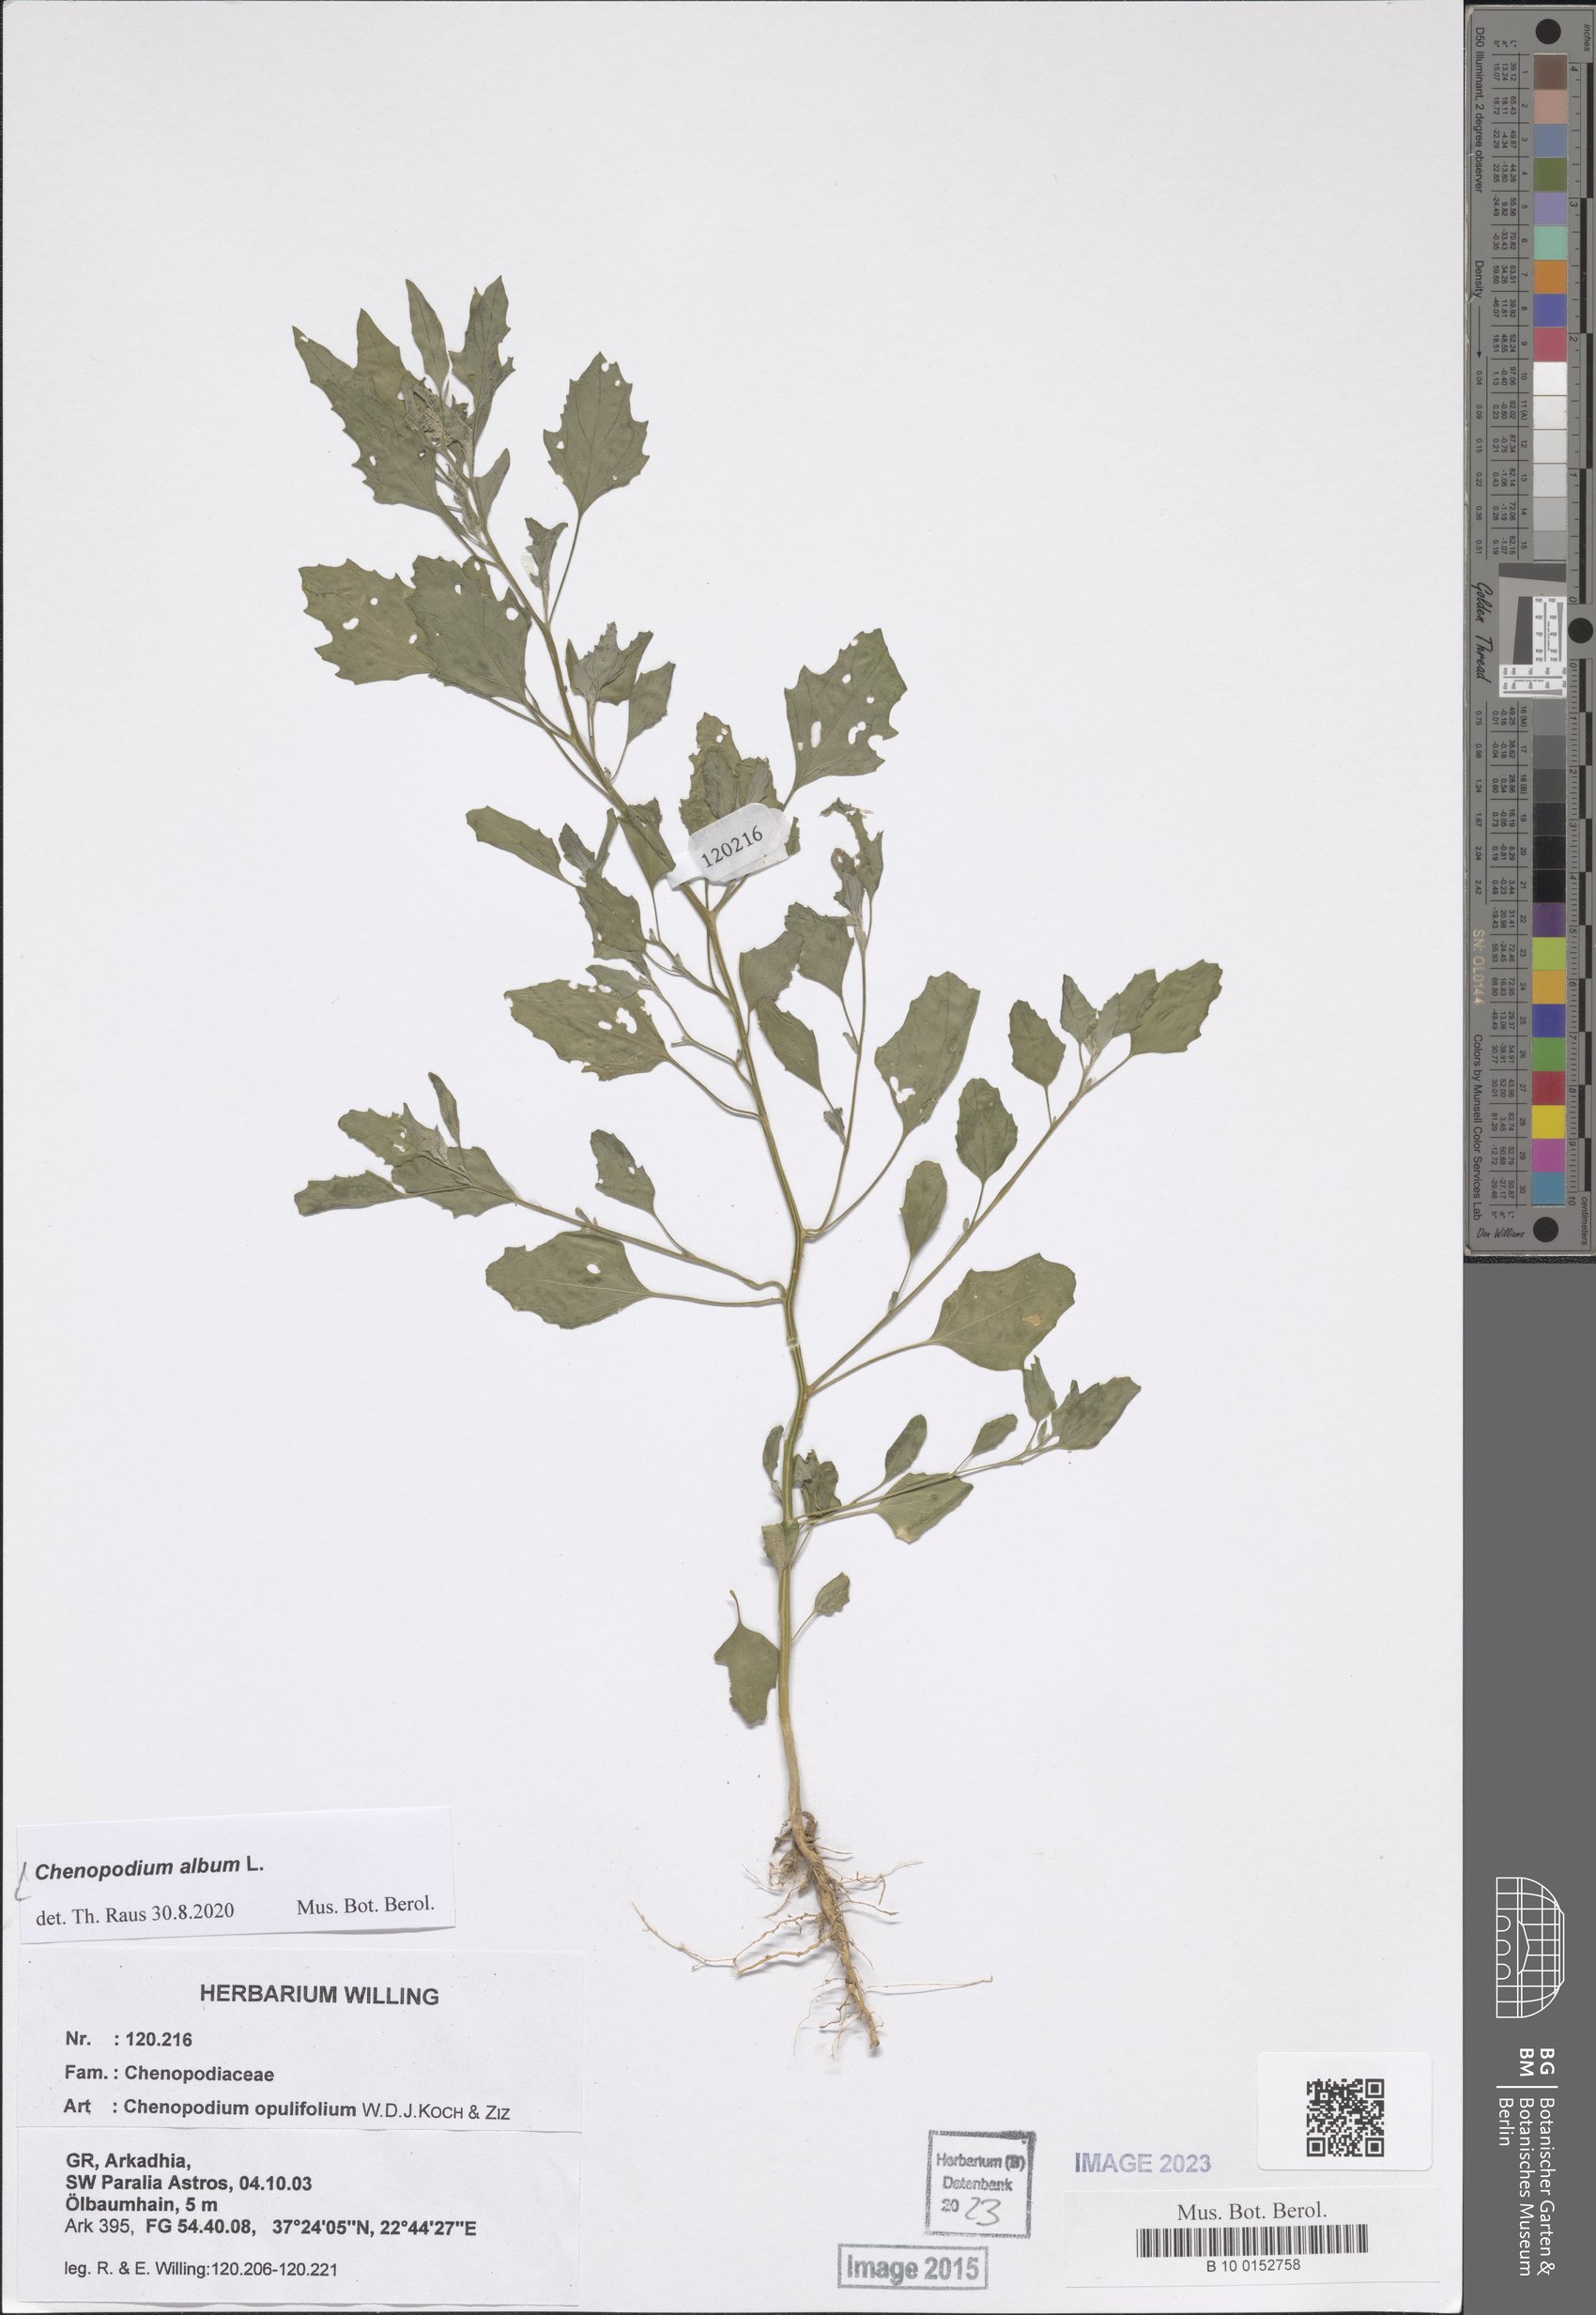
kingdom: Plantae
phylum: Tracheophyta
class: Magnoliopsida
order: Caryophyllales
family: Amaranthaceae
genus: Chenopodium
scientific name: Chenopodium album
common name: Fat-hen
